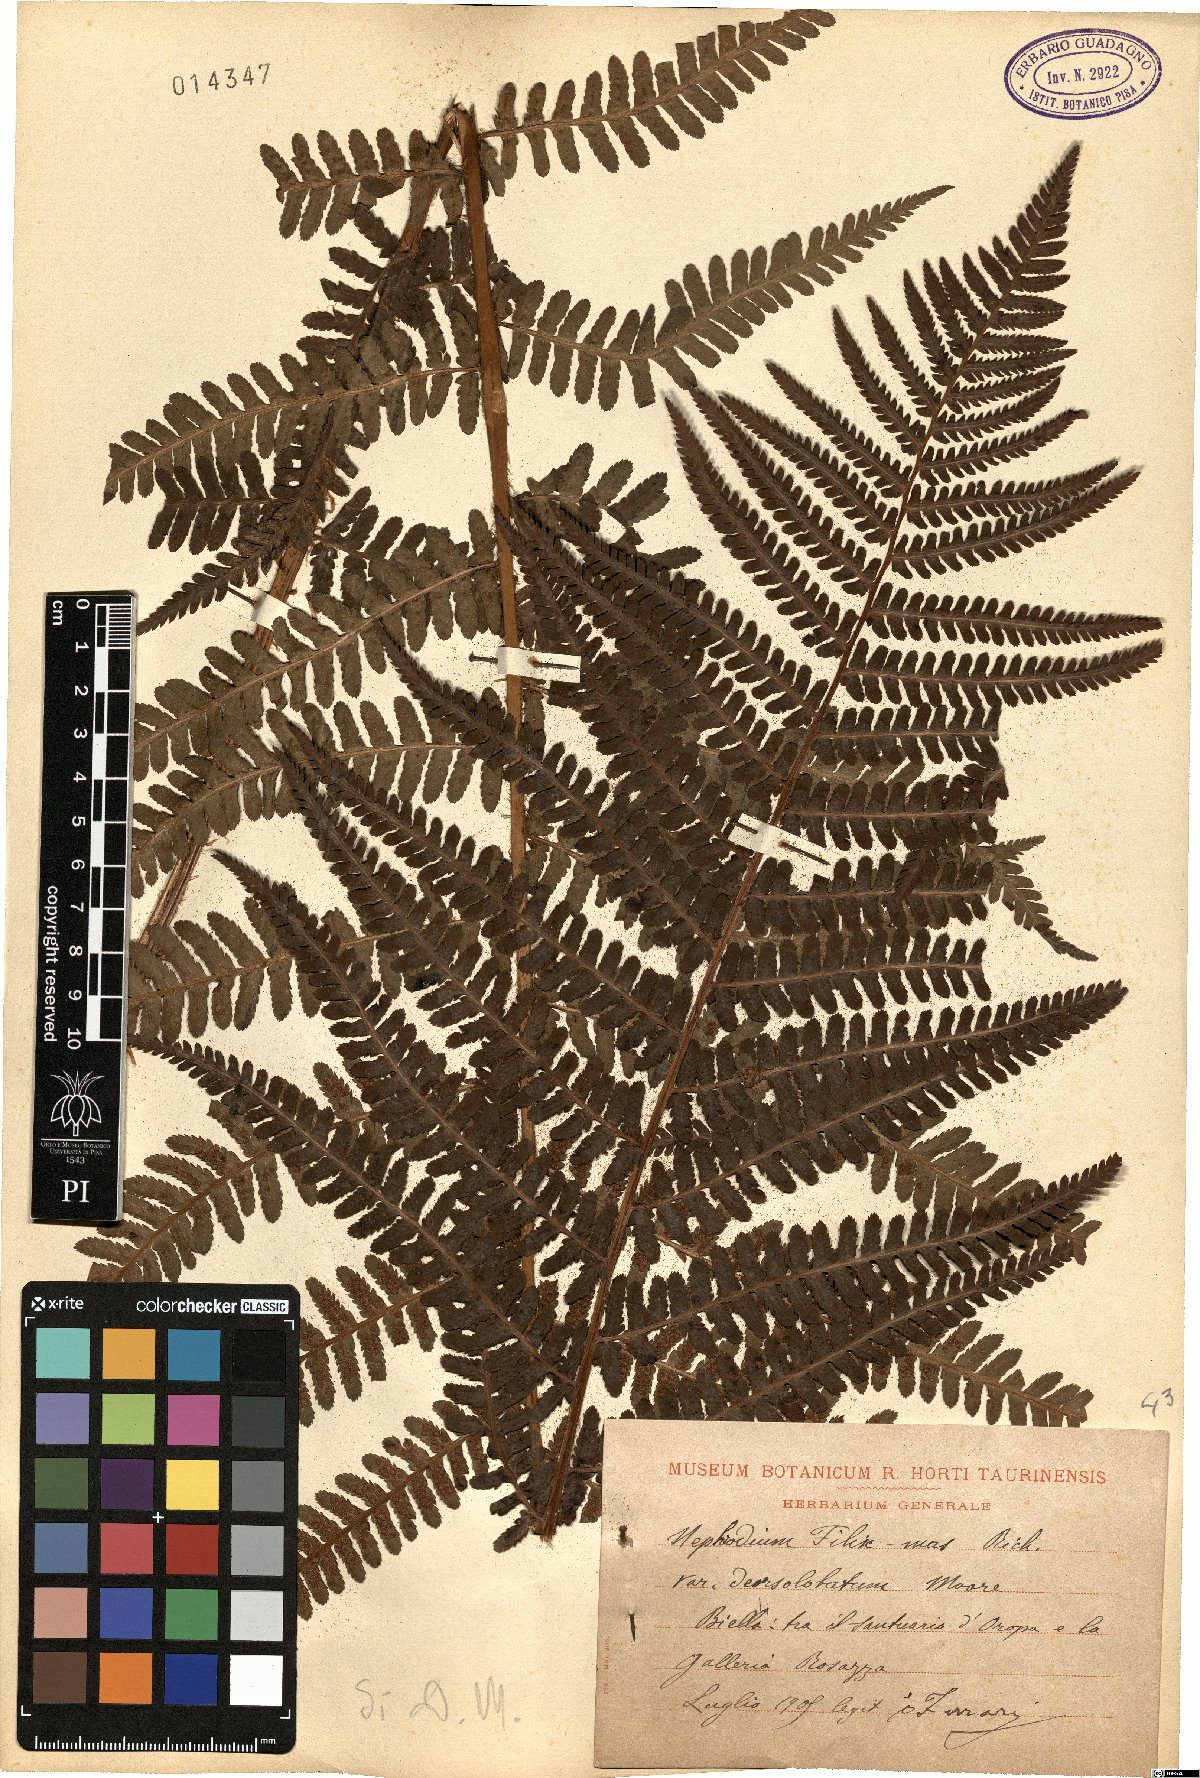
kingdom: Plantae
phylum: Tracheophyta
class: Polypodiopsida
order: Polypodiales
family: Dryopteridaceae
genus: Dryopteris
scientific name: Dryopteris filix-mas
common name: Male fern
